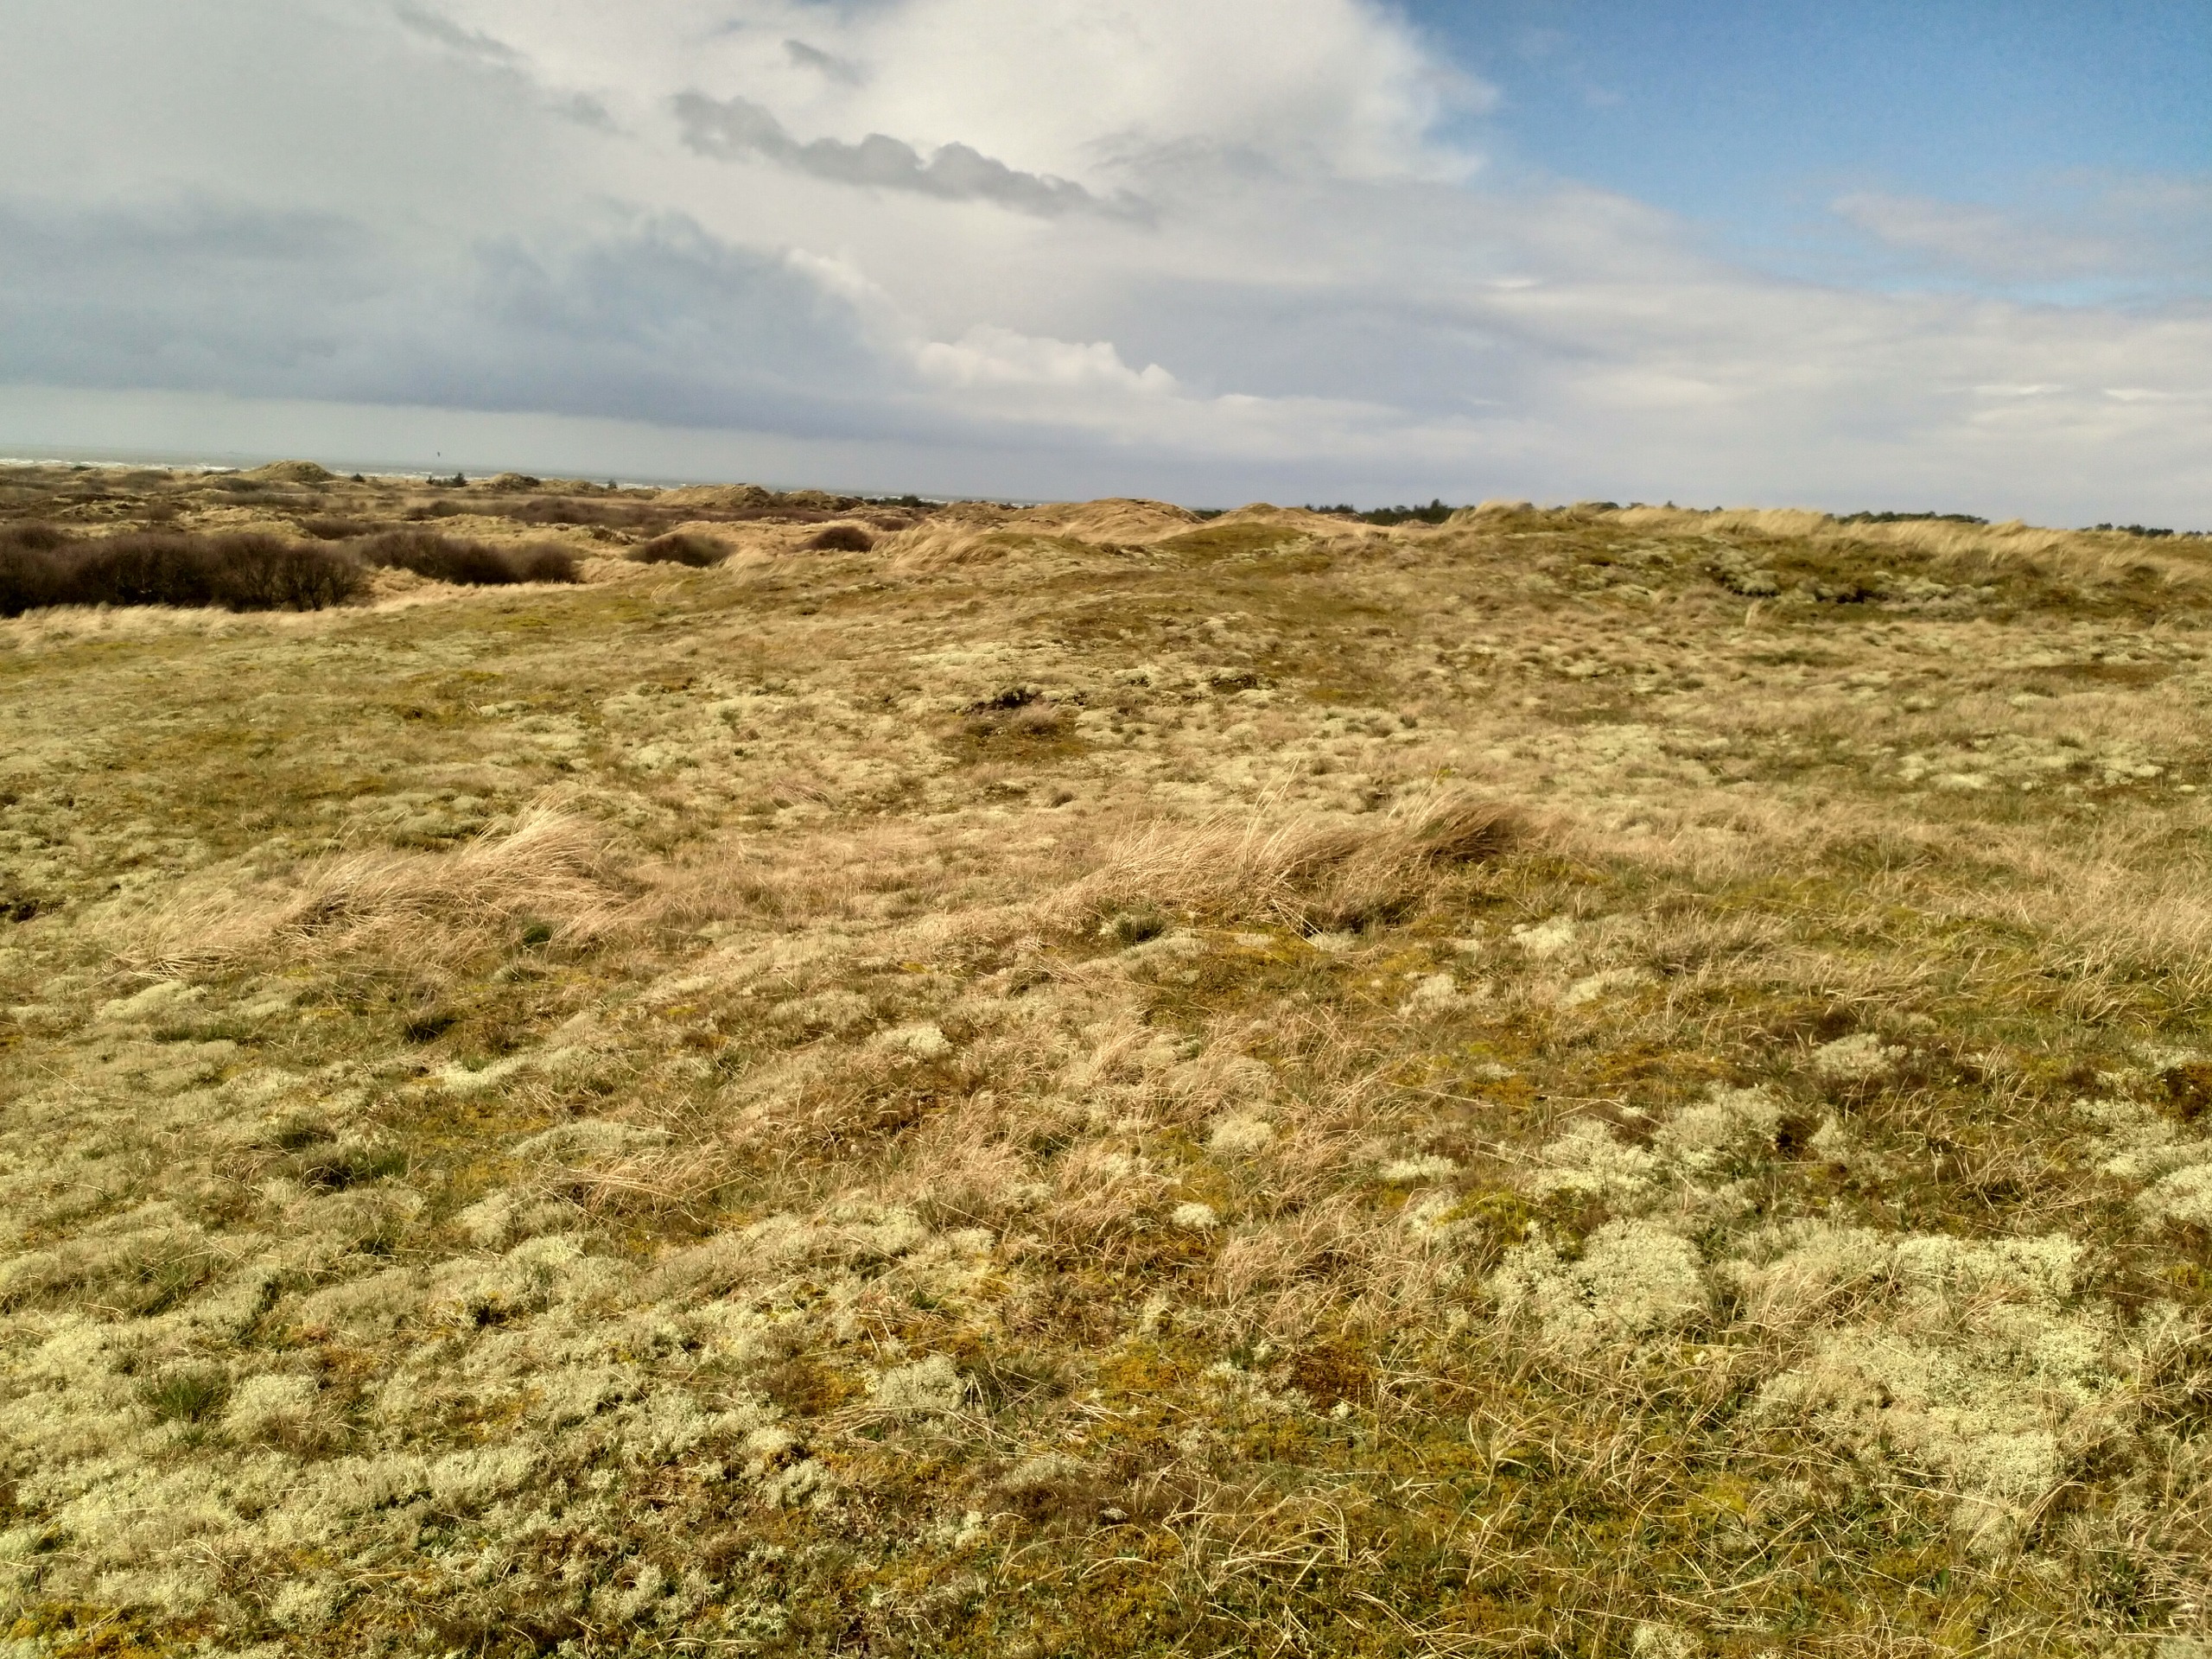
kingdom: Plantae
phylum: Tracheophyta
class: Liliopsida
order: Poales
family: Juncaceae
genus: Luzula
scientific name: Luzula campestris
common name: Mark-frytle
